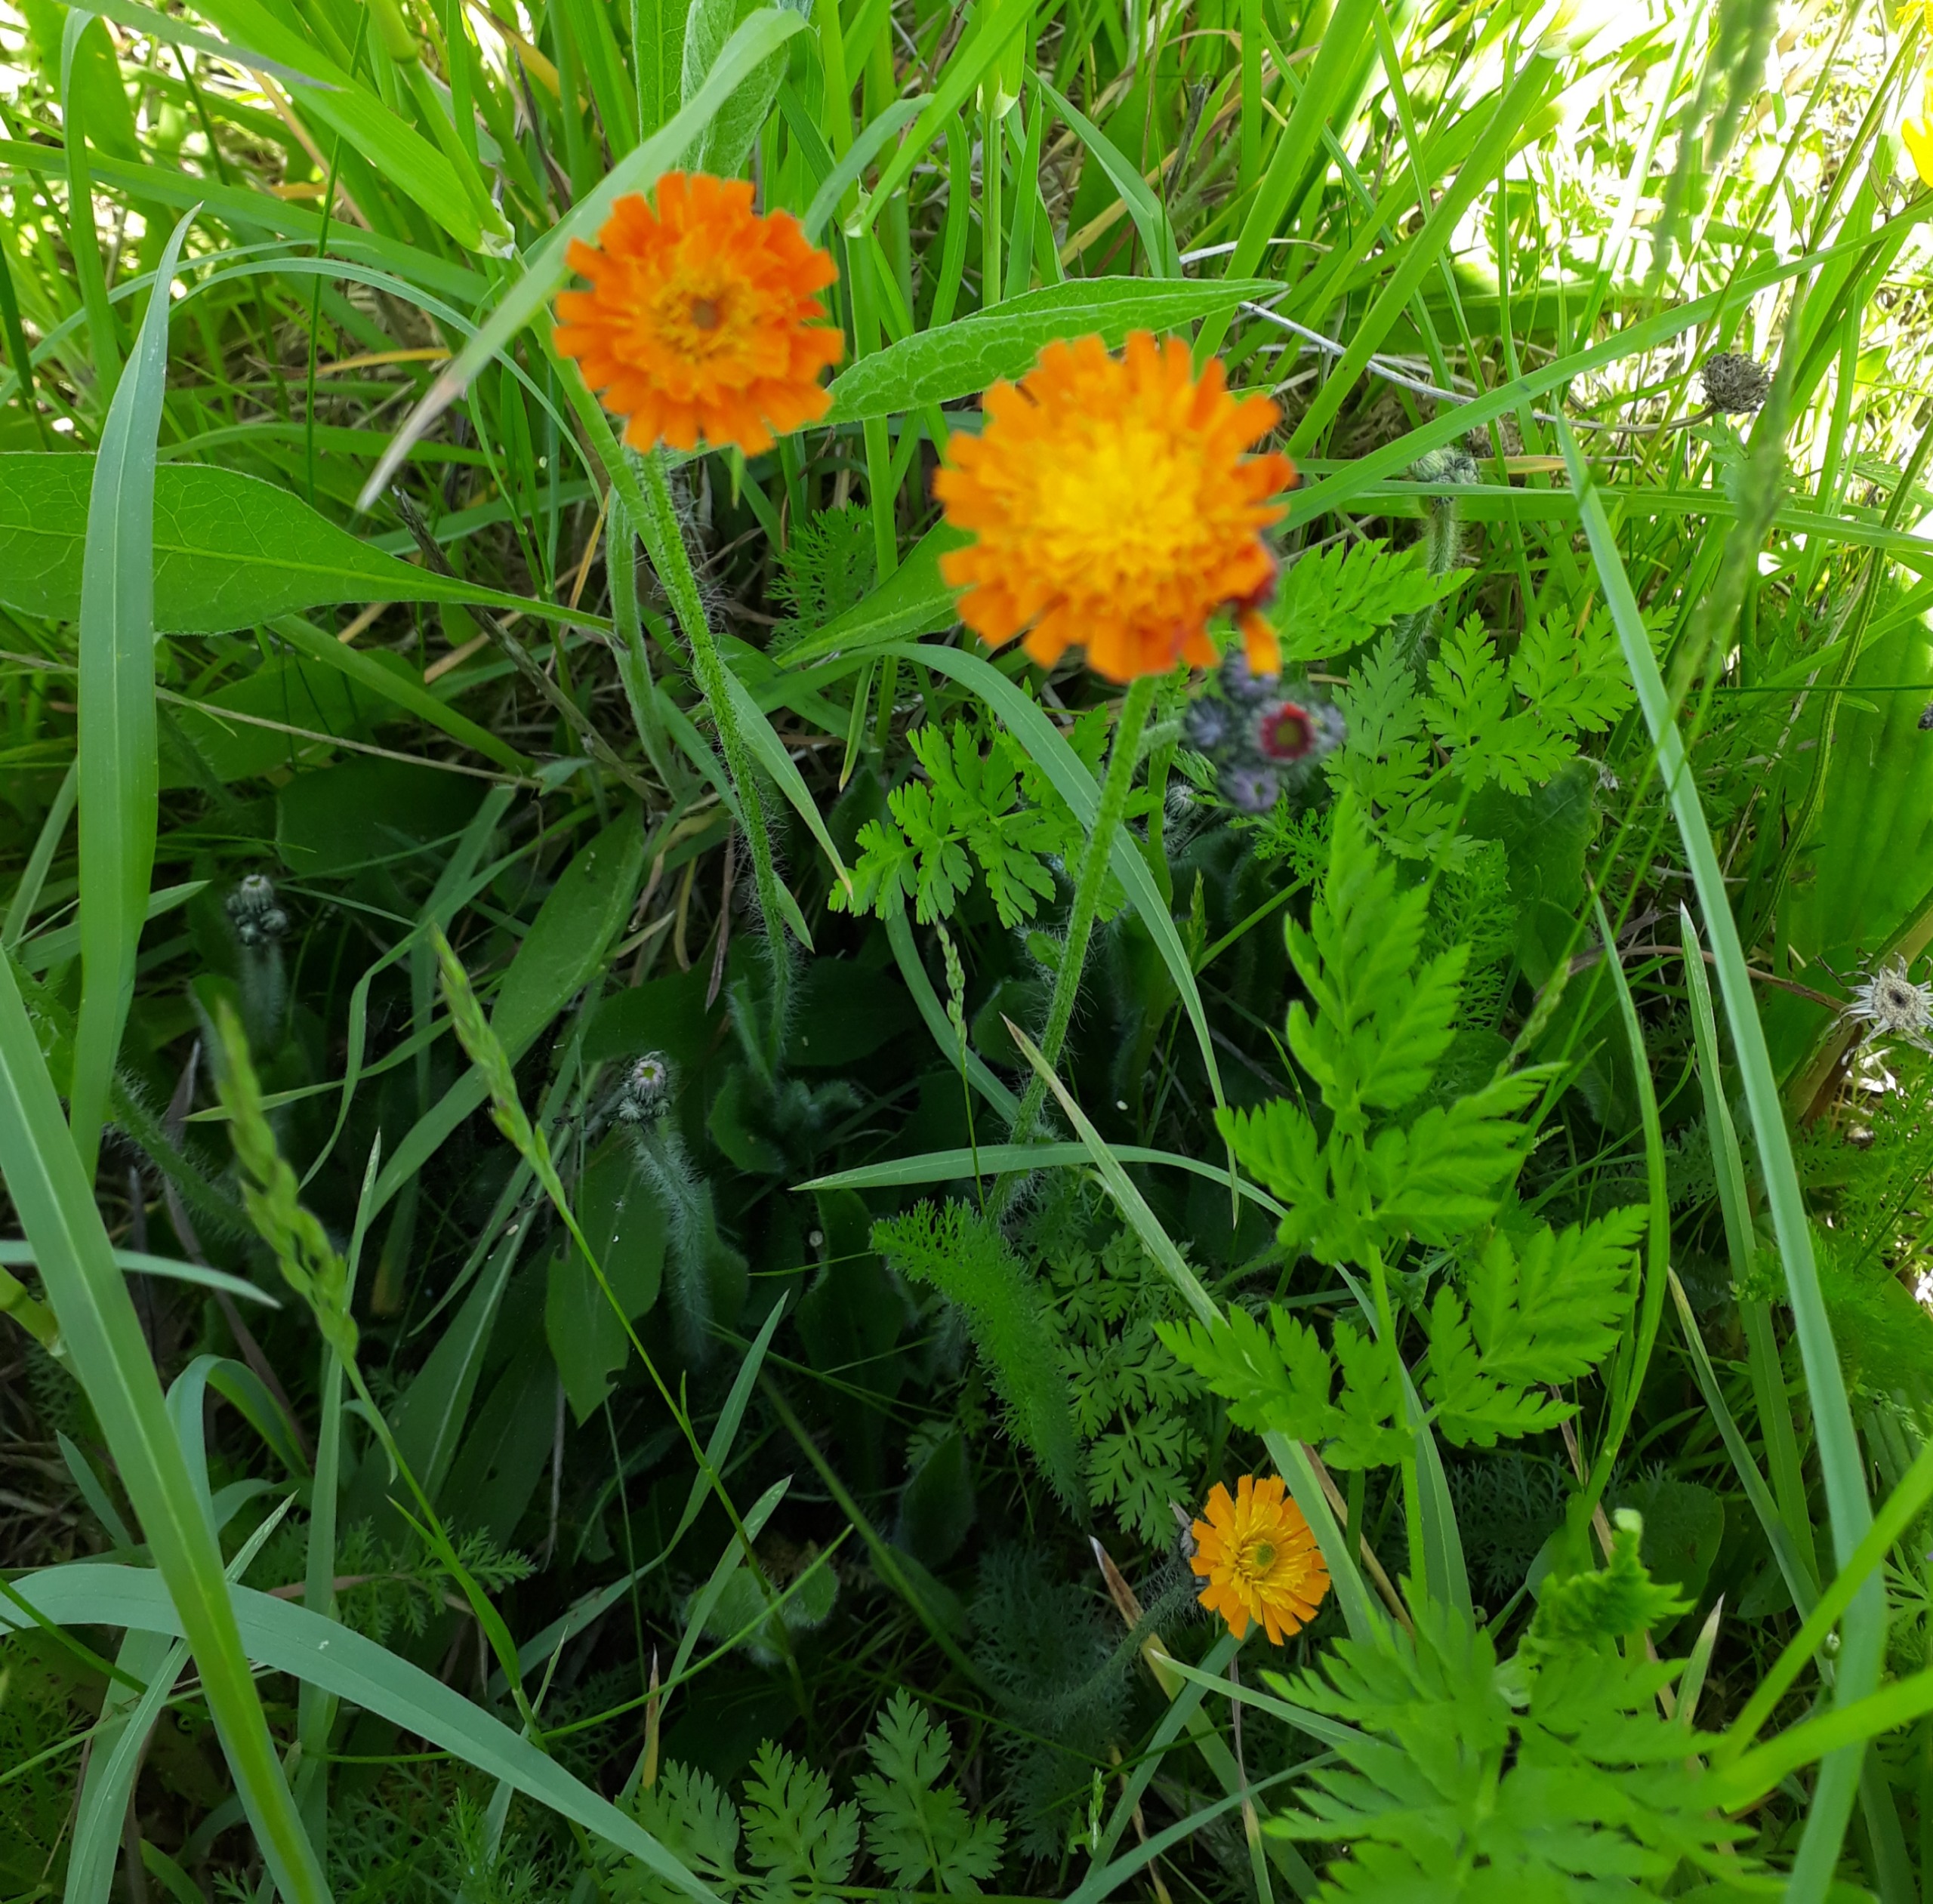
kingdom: Plantae
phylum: Tracheophyta
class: Magnoliopsida
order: Asterales
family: Asteraceae
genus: Pilosella
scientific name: Pilosella aurantiaca
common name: Pomerans-høgeurt
